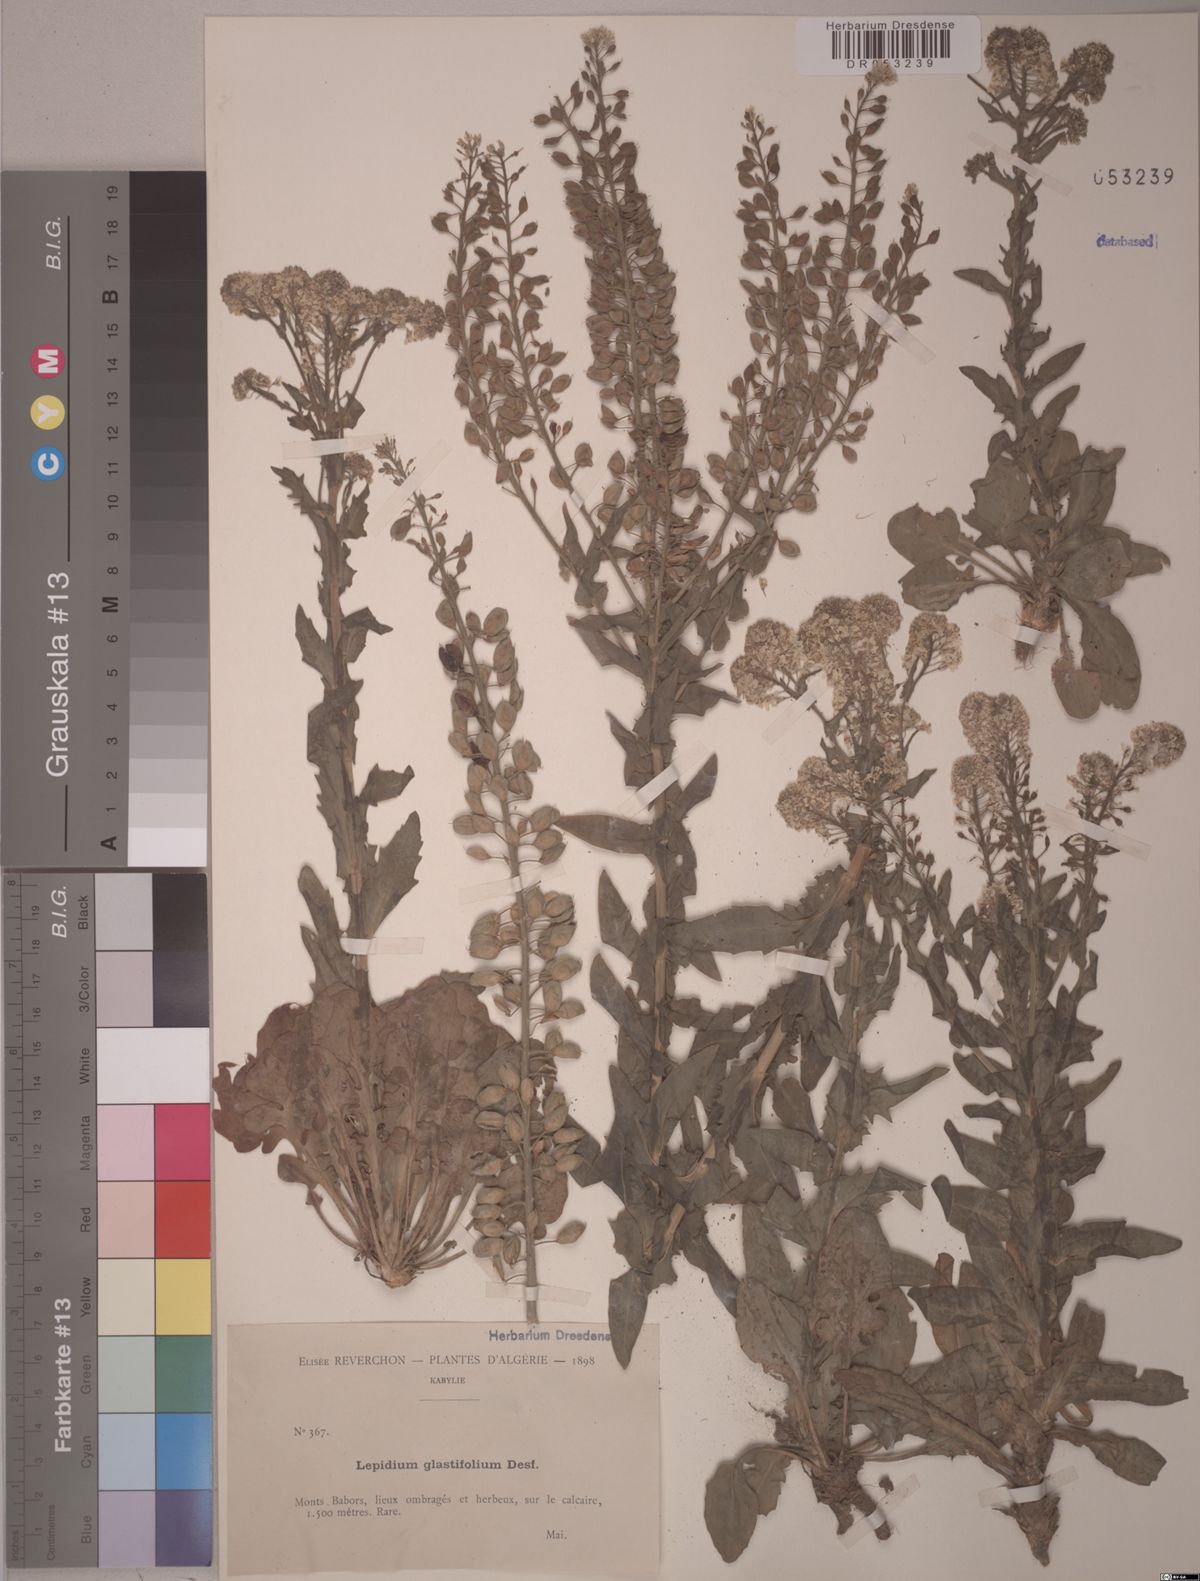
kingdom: Plantae
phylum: Tracheophyta
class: Magnoliopsida
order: Brassicales
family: Brassicaceae
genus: Lepidium
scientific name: Lepidium glastifolium
